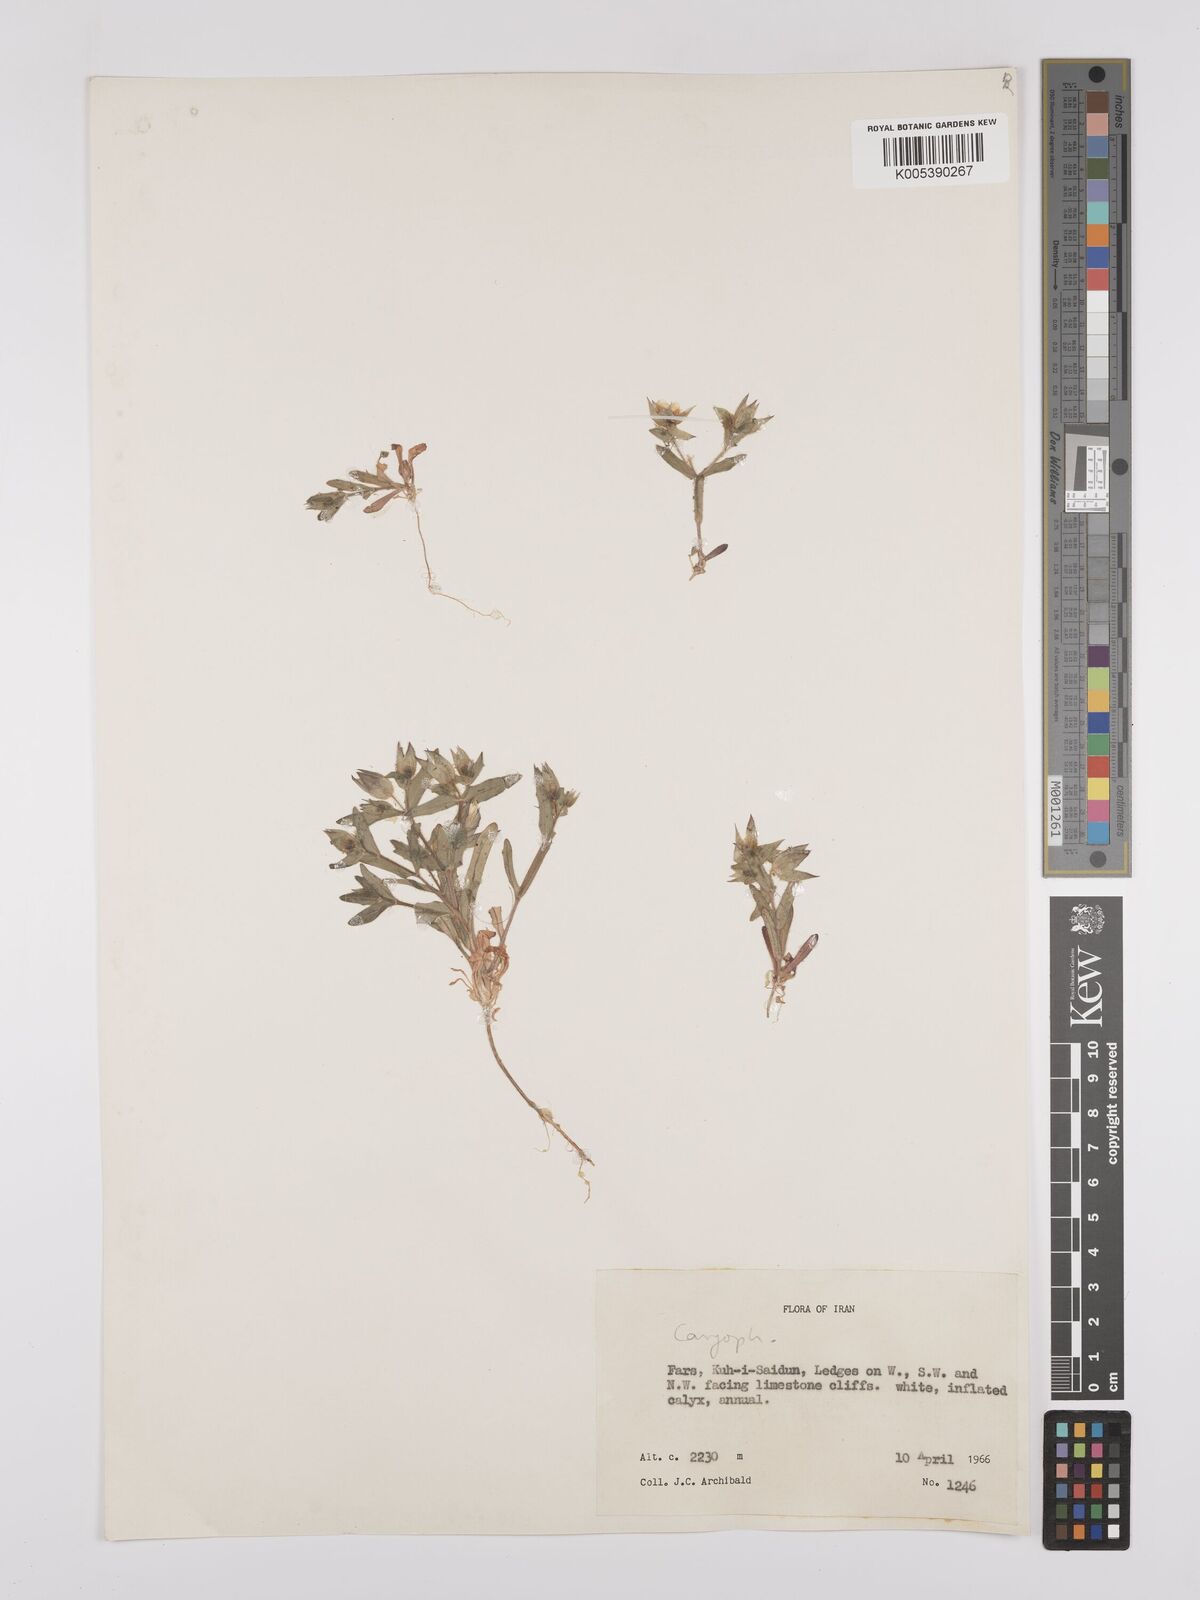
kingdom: Plantae
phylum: Tracheophyta
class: Magnoliopsida
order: Caryophyllales
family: Caryophyllaceae
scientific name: Caryophyllaceae
